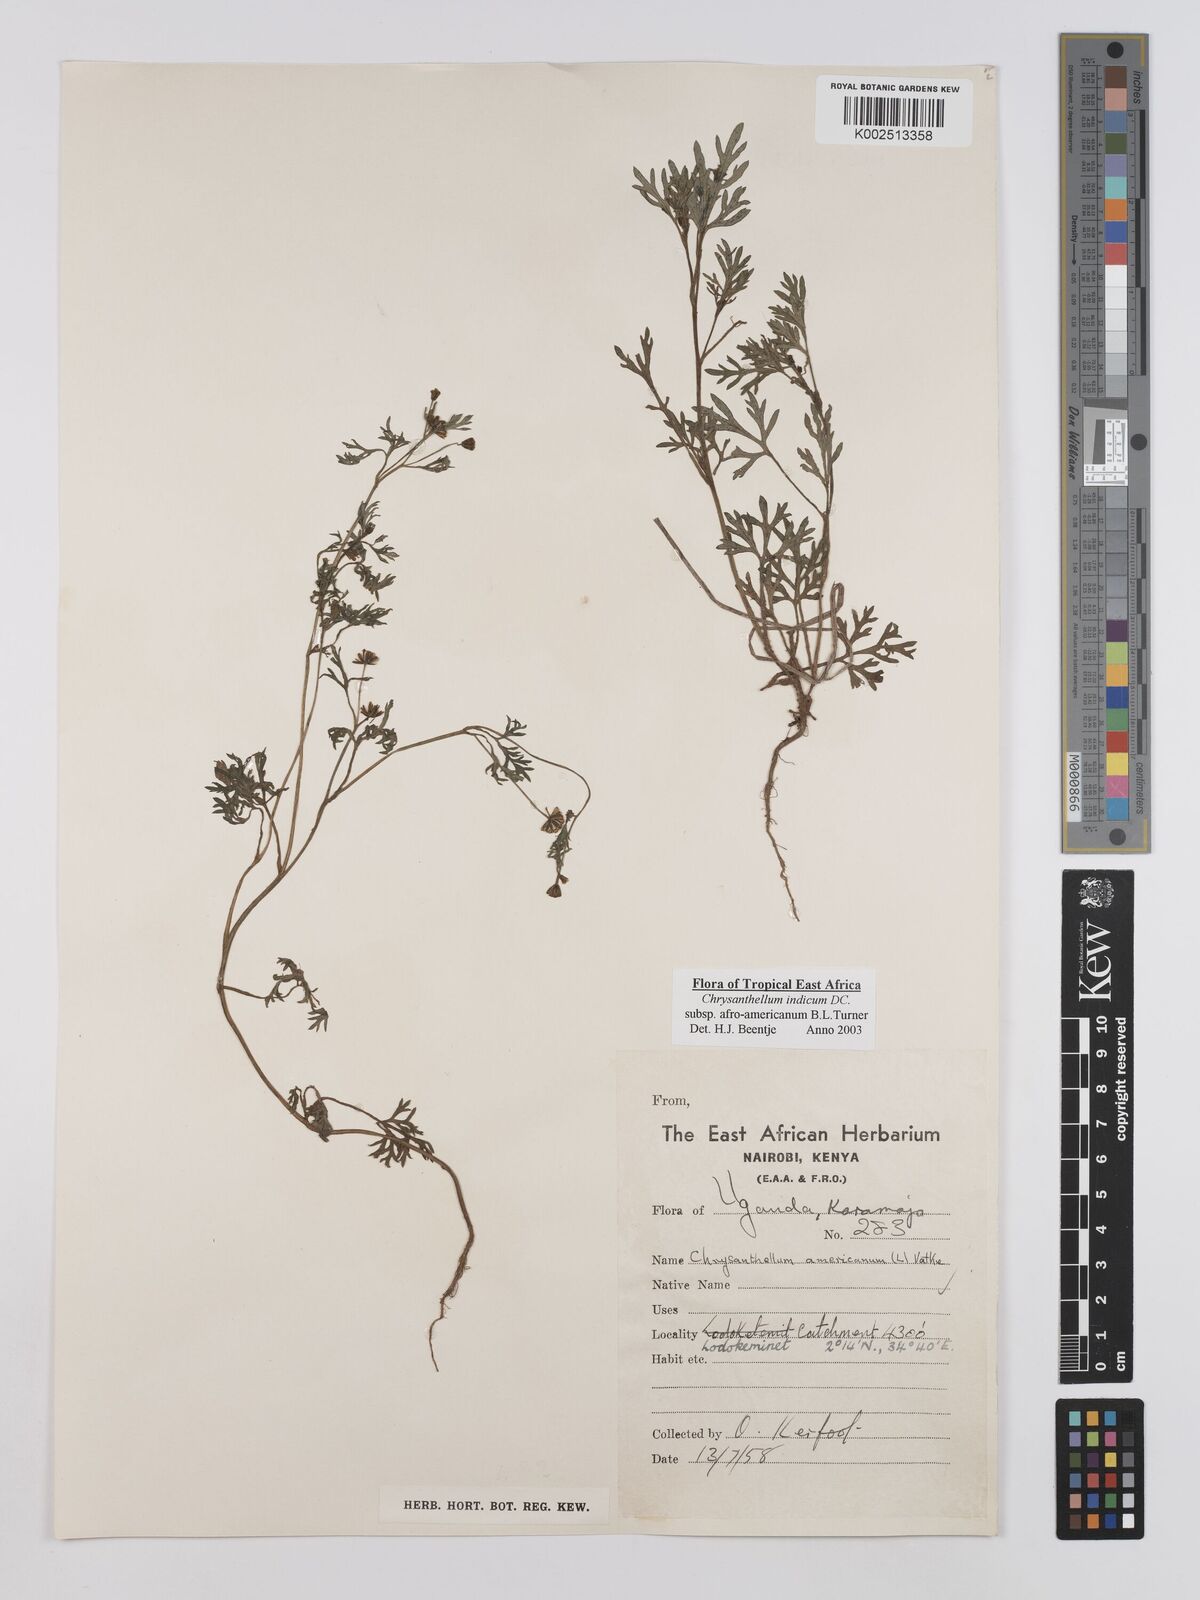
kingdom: Plantae
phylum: Tracheophyta
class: Magnoliopsida
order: Asterales
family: Asteraceae
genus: Chrysanthellum
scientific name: Chrysanthellum indicum
